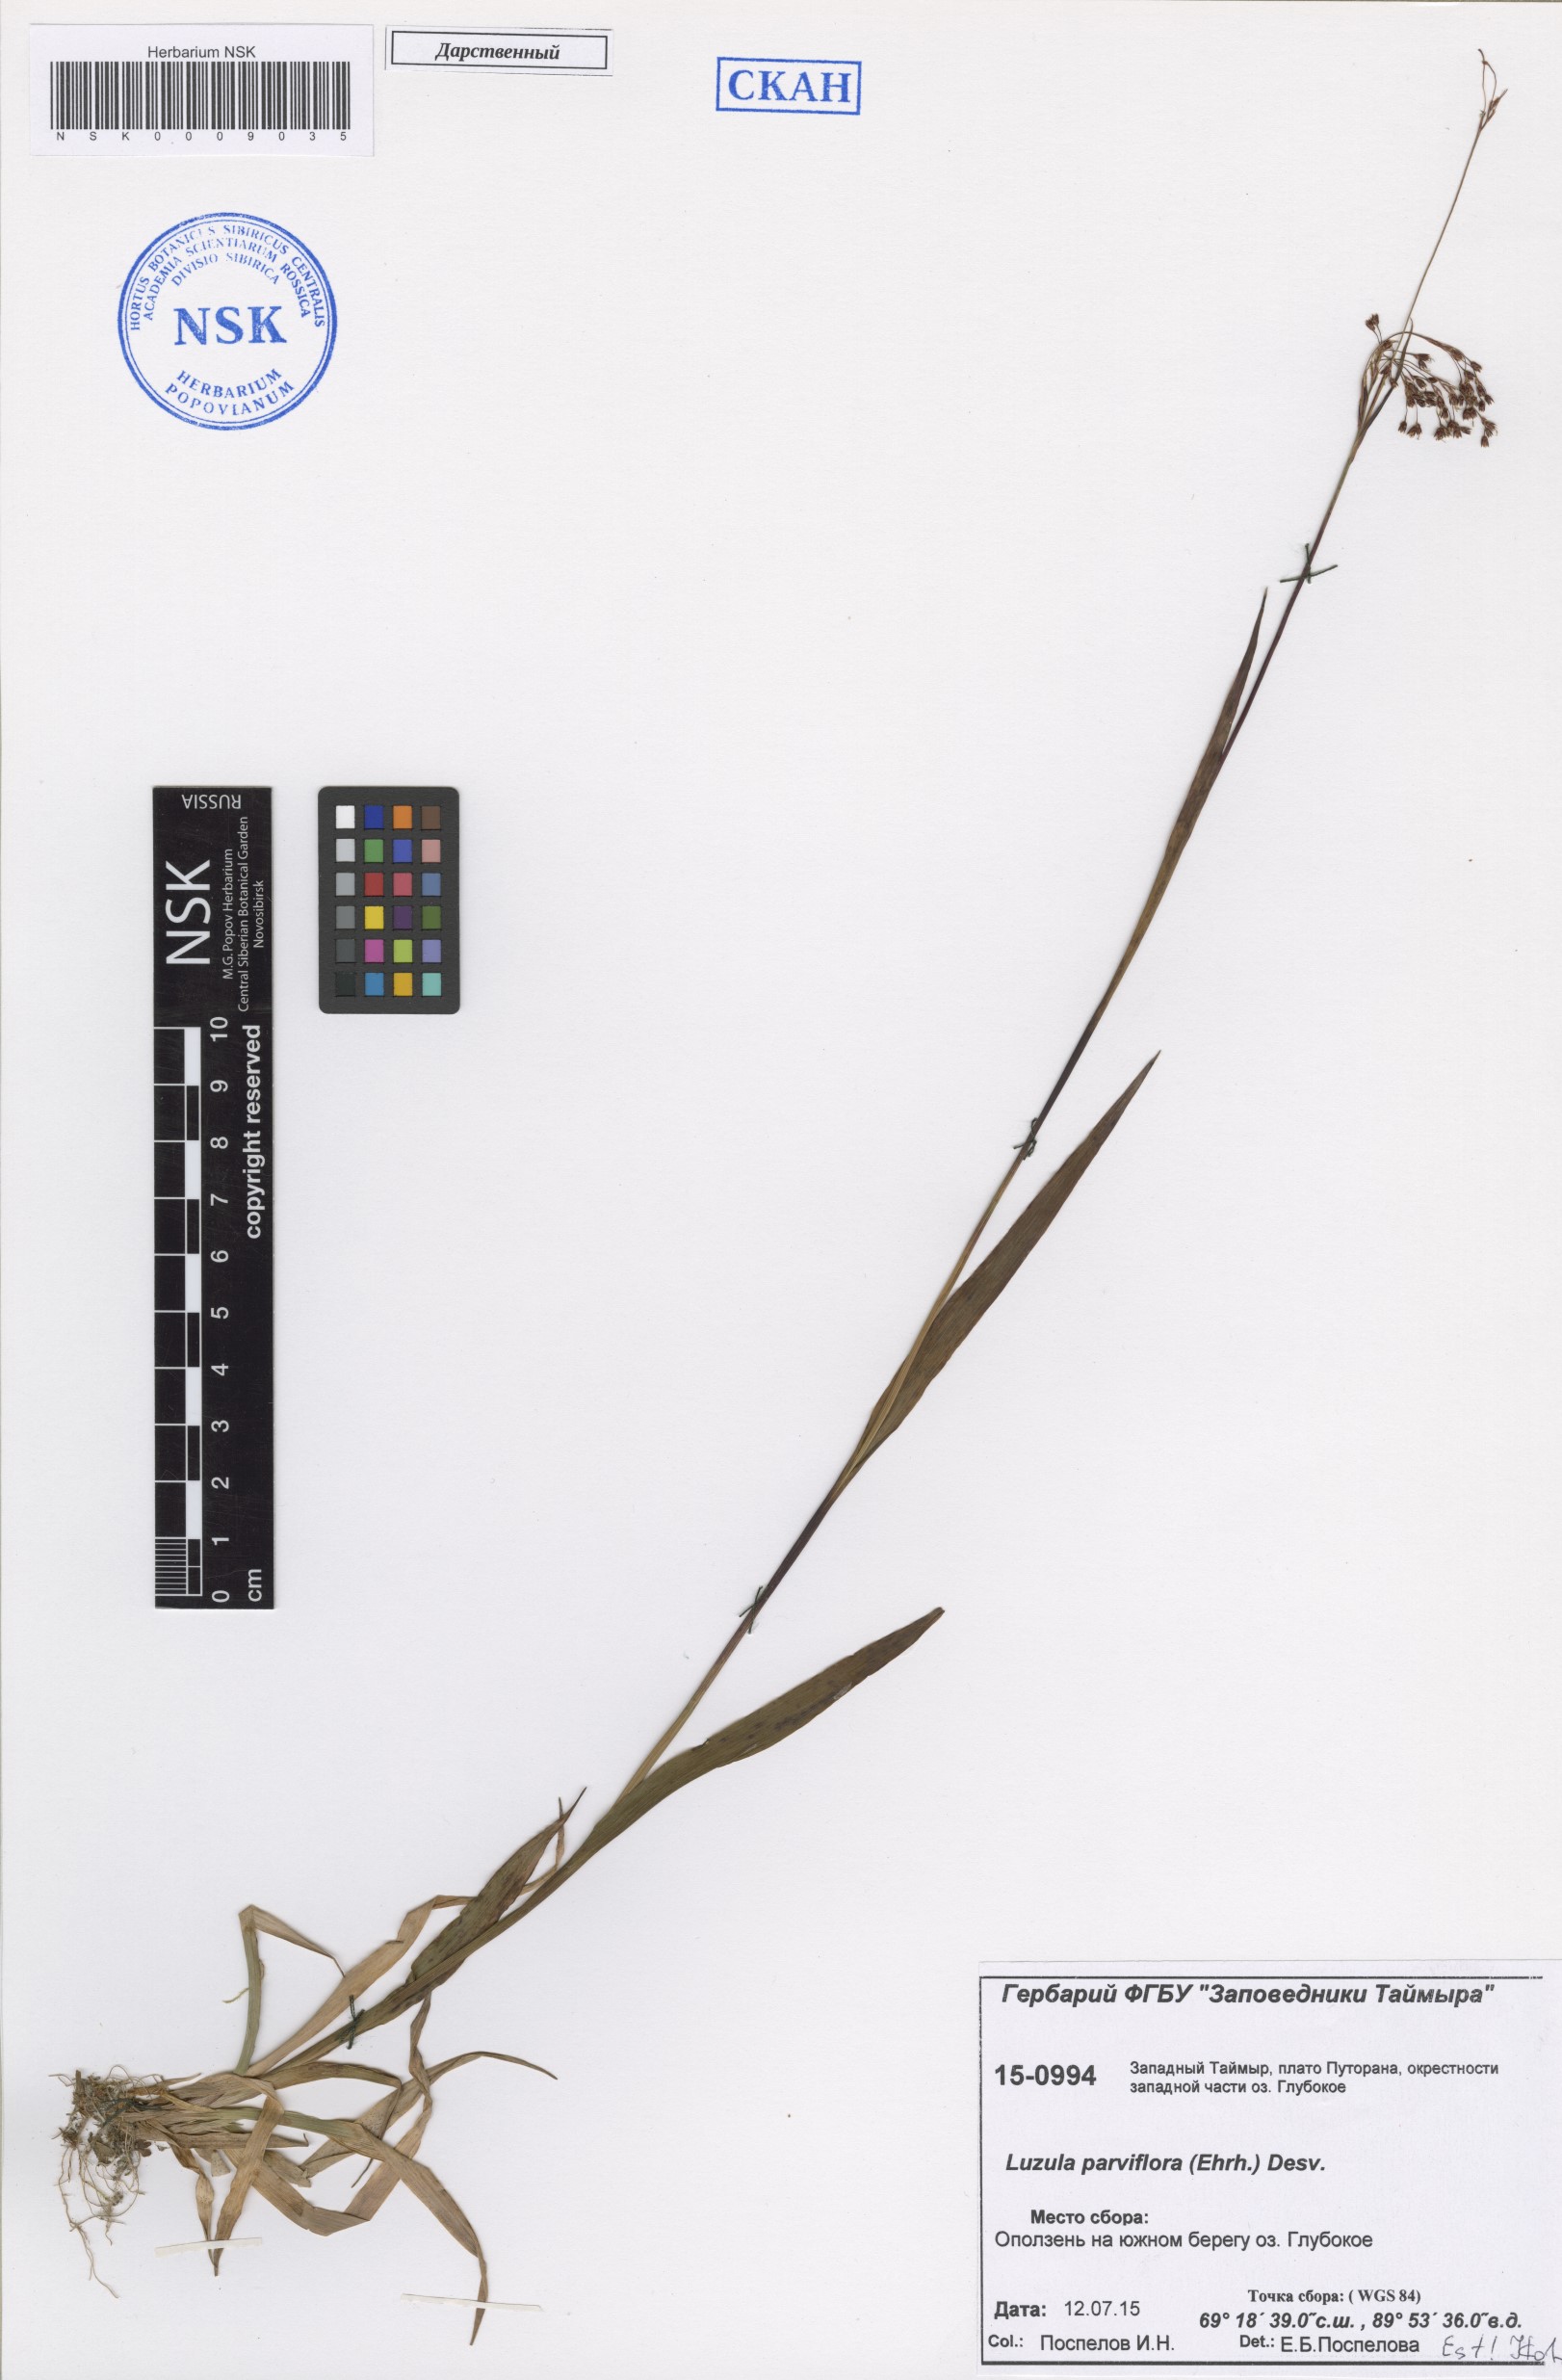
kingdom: Plantae
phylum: Tracheophyta
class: Liliopsida
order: Poales
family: Juncaceae
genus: Luzula
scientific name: Luzula parviflora
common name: Millet woodrush
